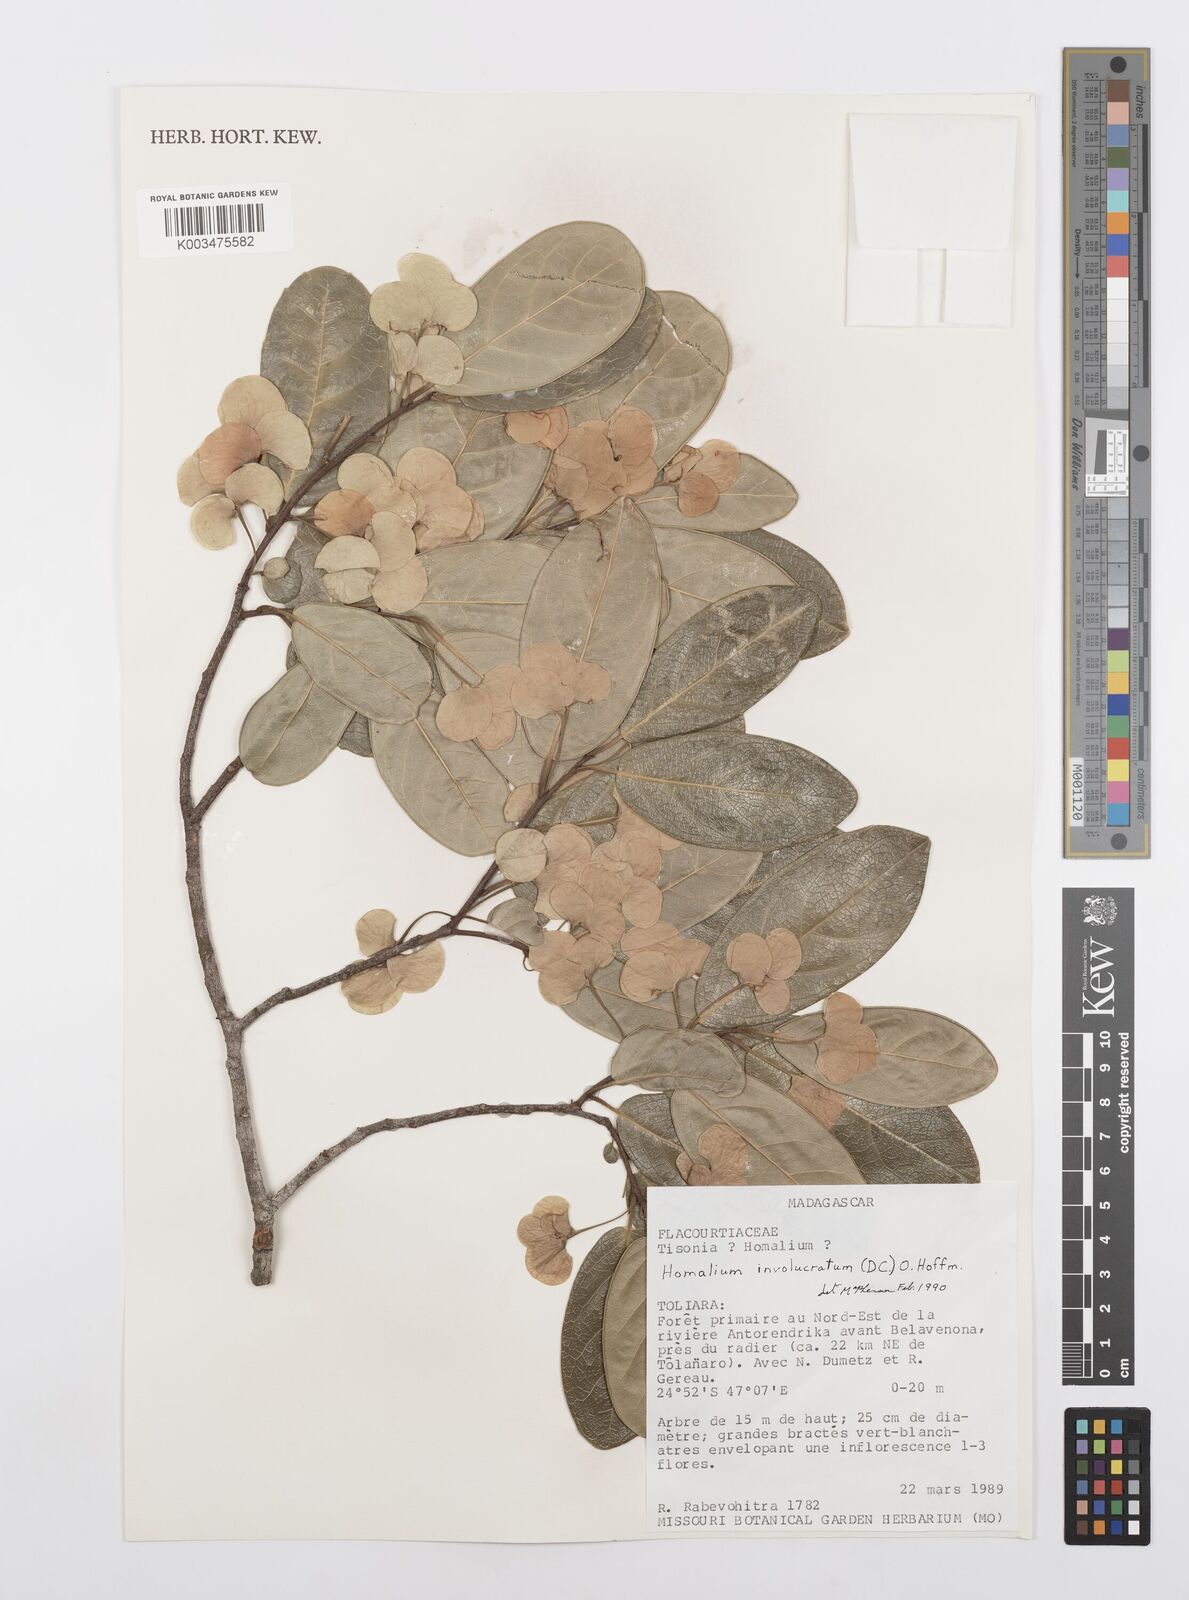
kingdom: Plantae
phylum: Tracheophyta
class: Magnoliopsida
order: Malpighiales
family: Salicaceae
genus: Homalium
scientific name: Homalium involucratum
